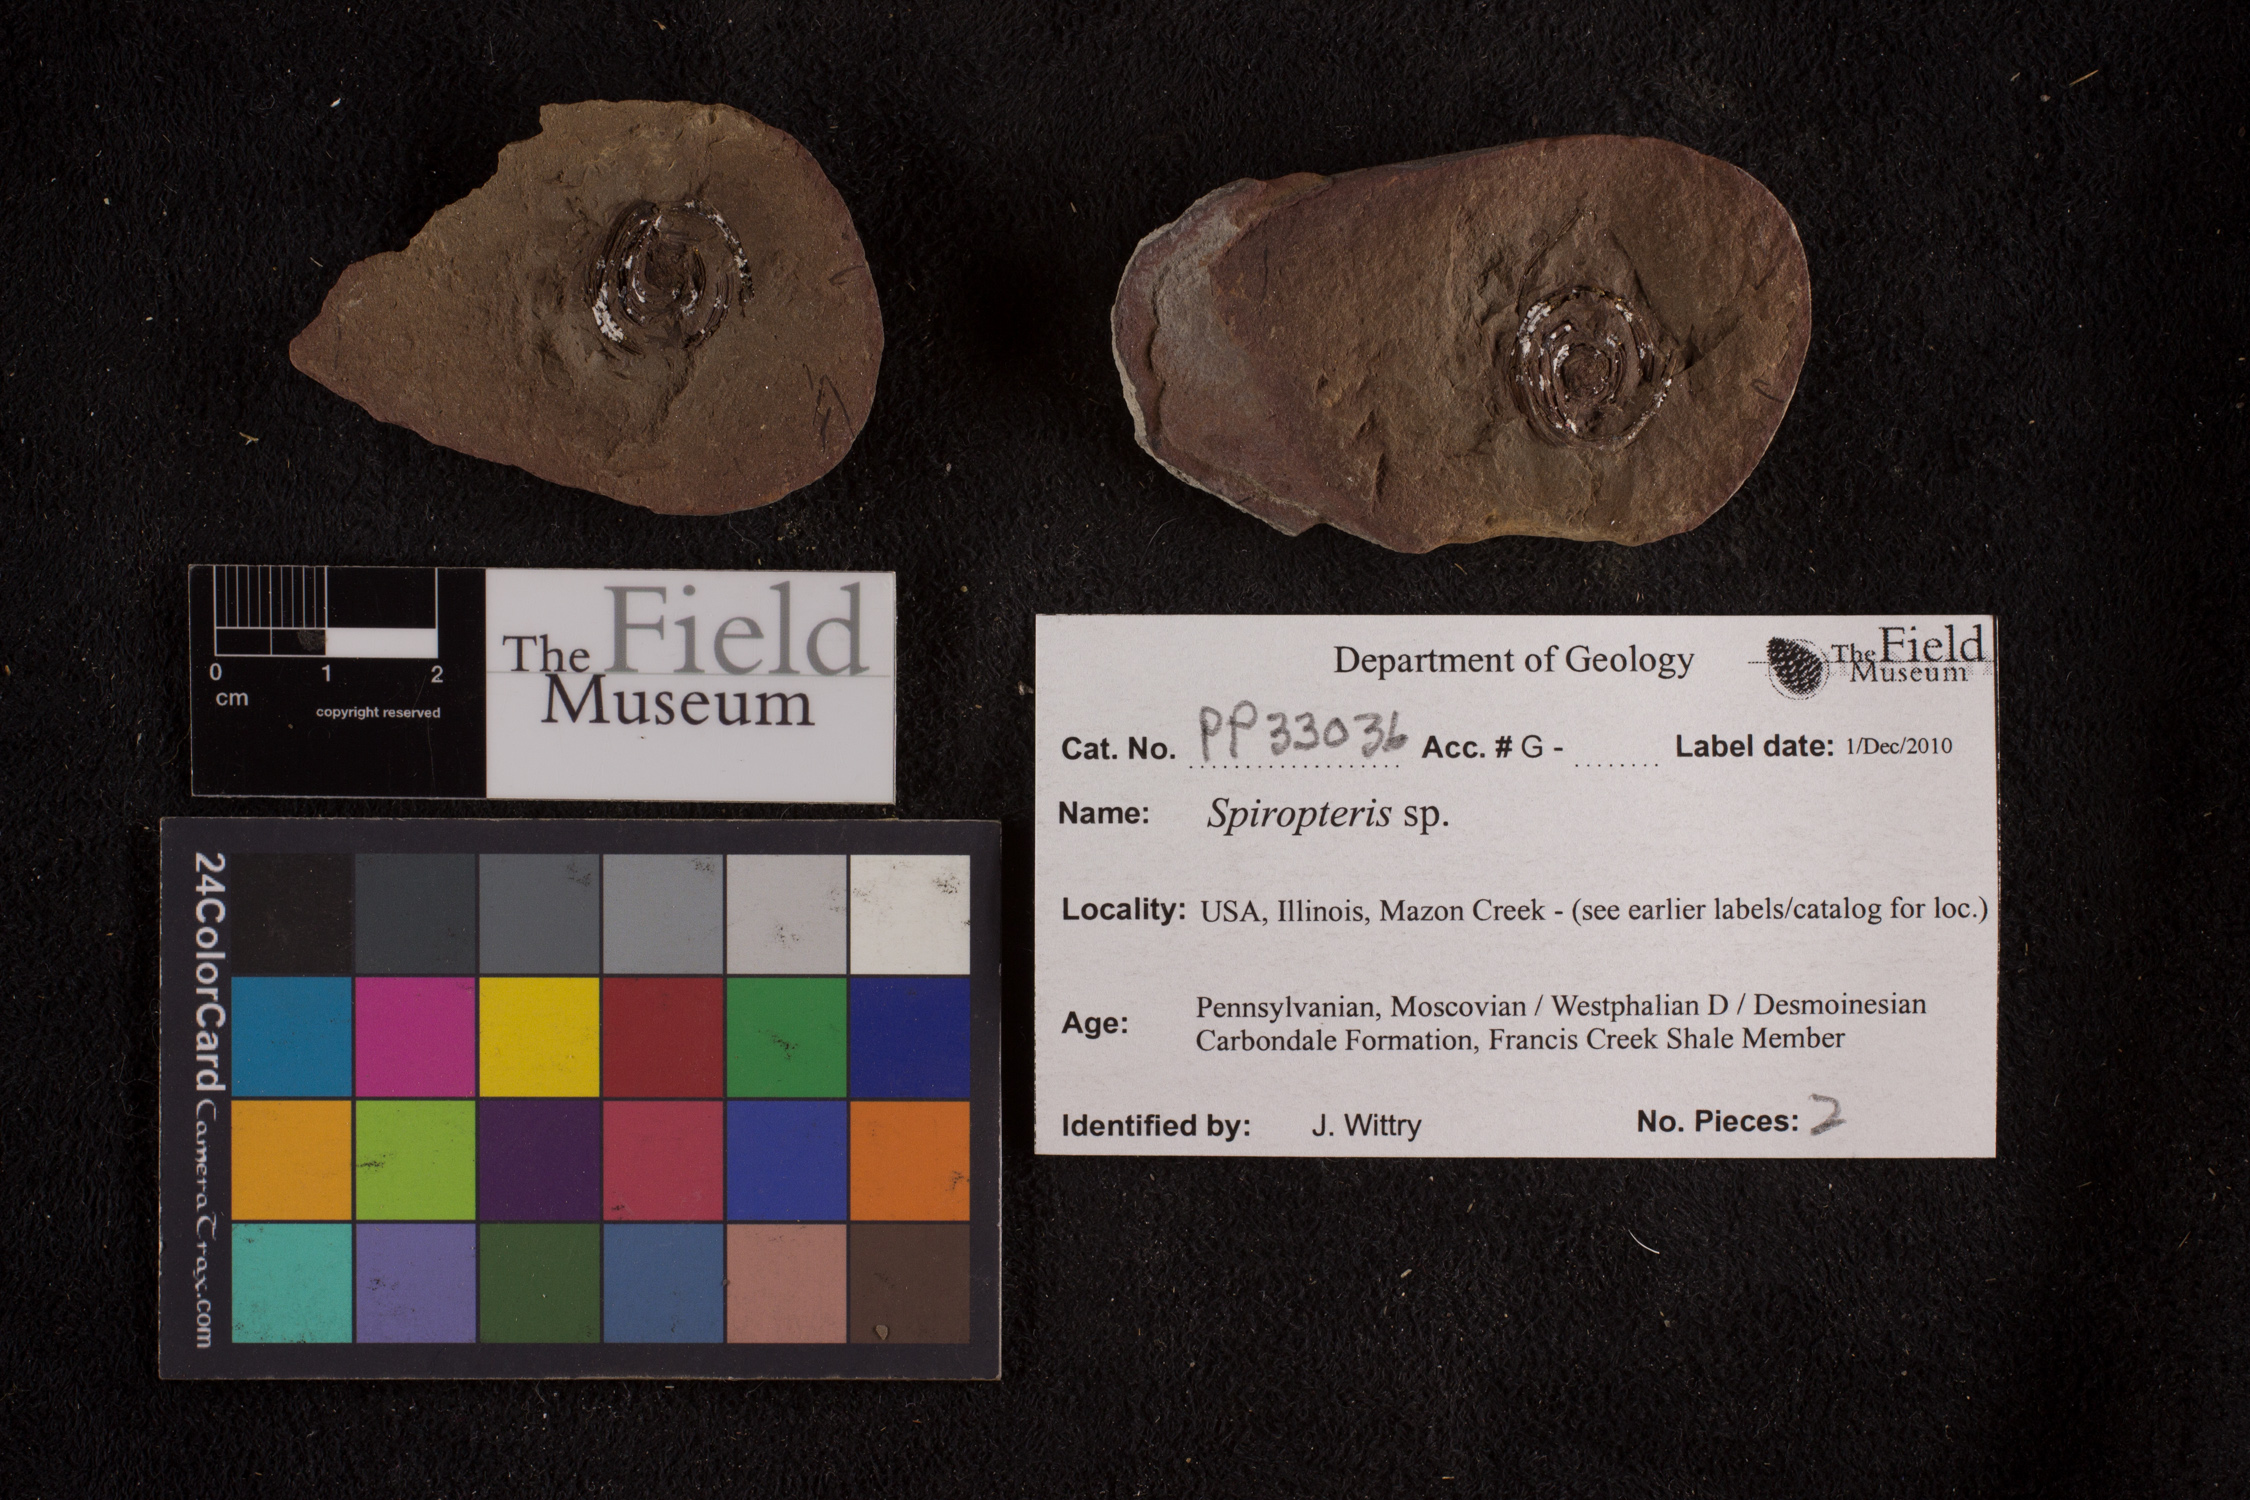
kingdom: Plantae
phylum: Tracheophyta
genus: Spiropteris
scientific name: Spiropteris
